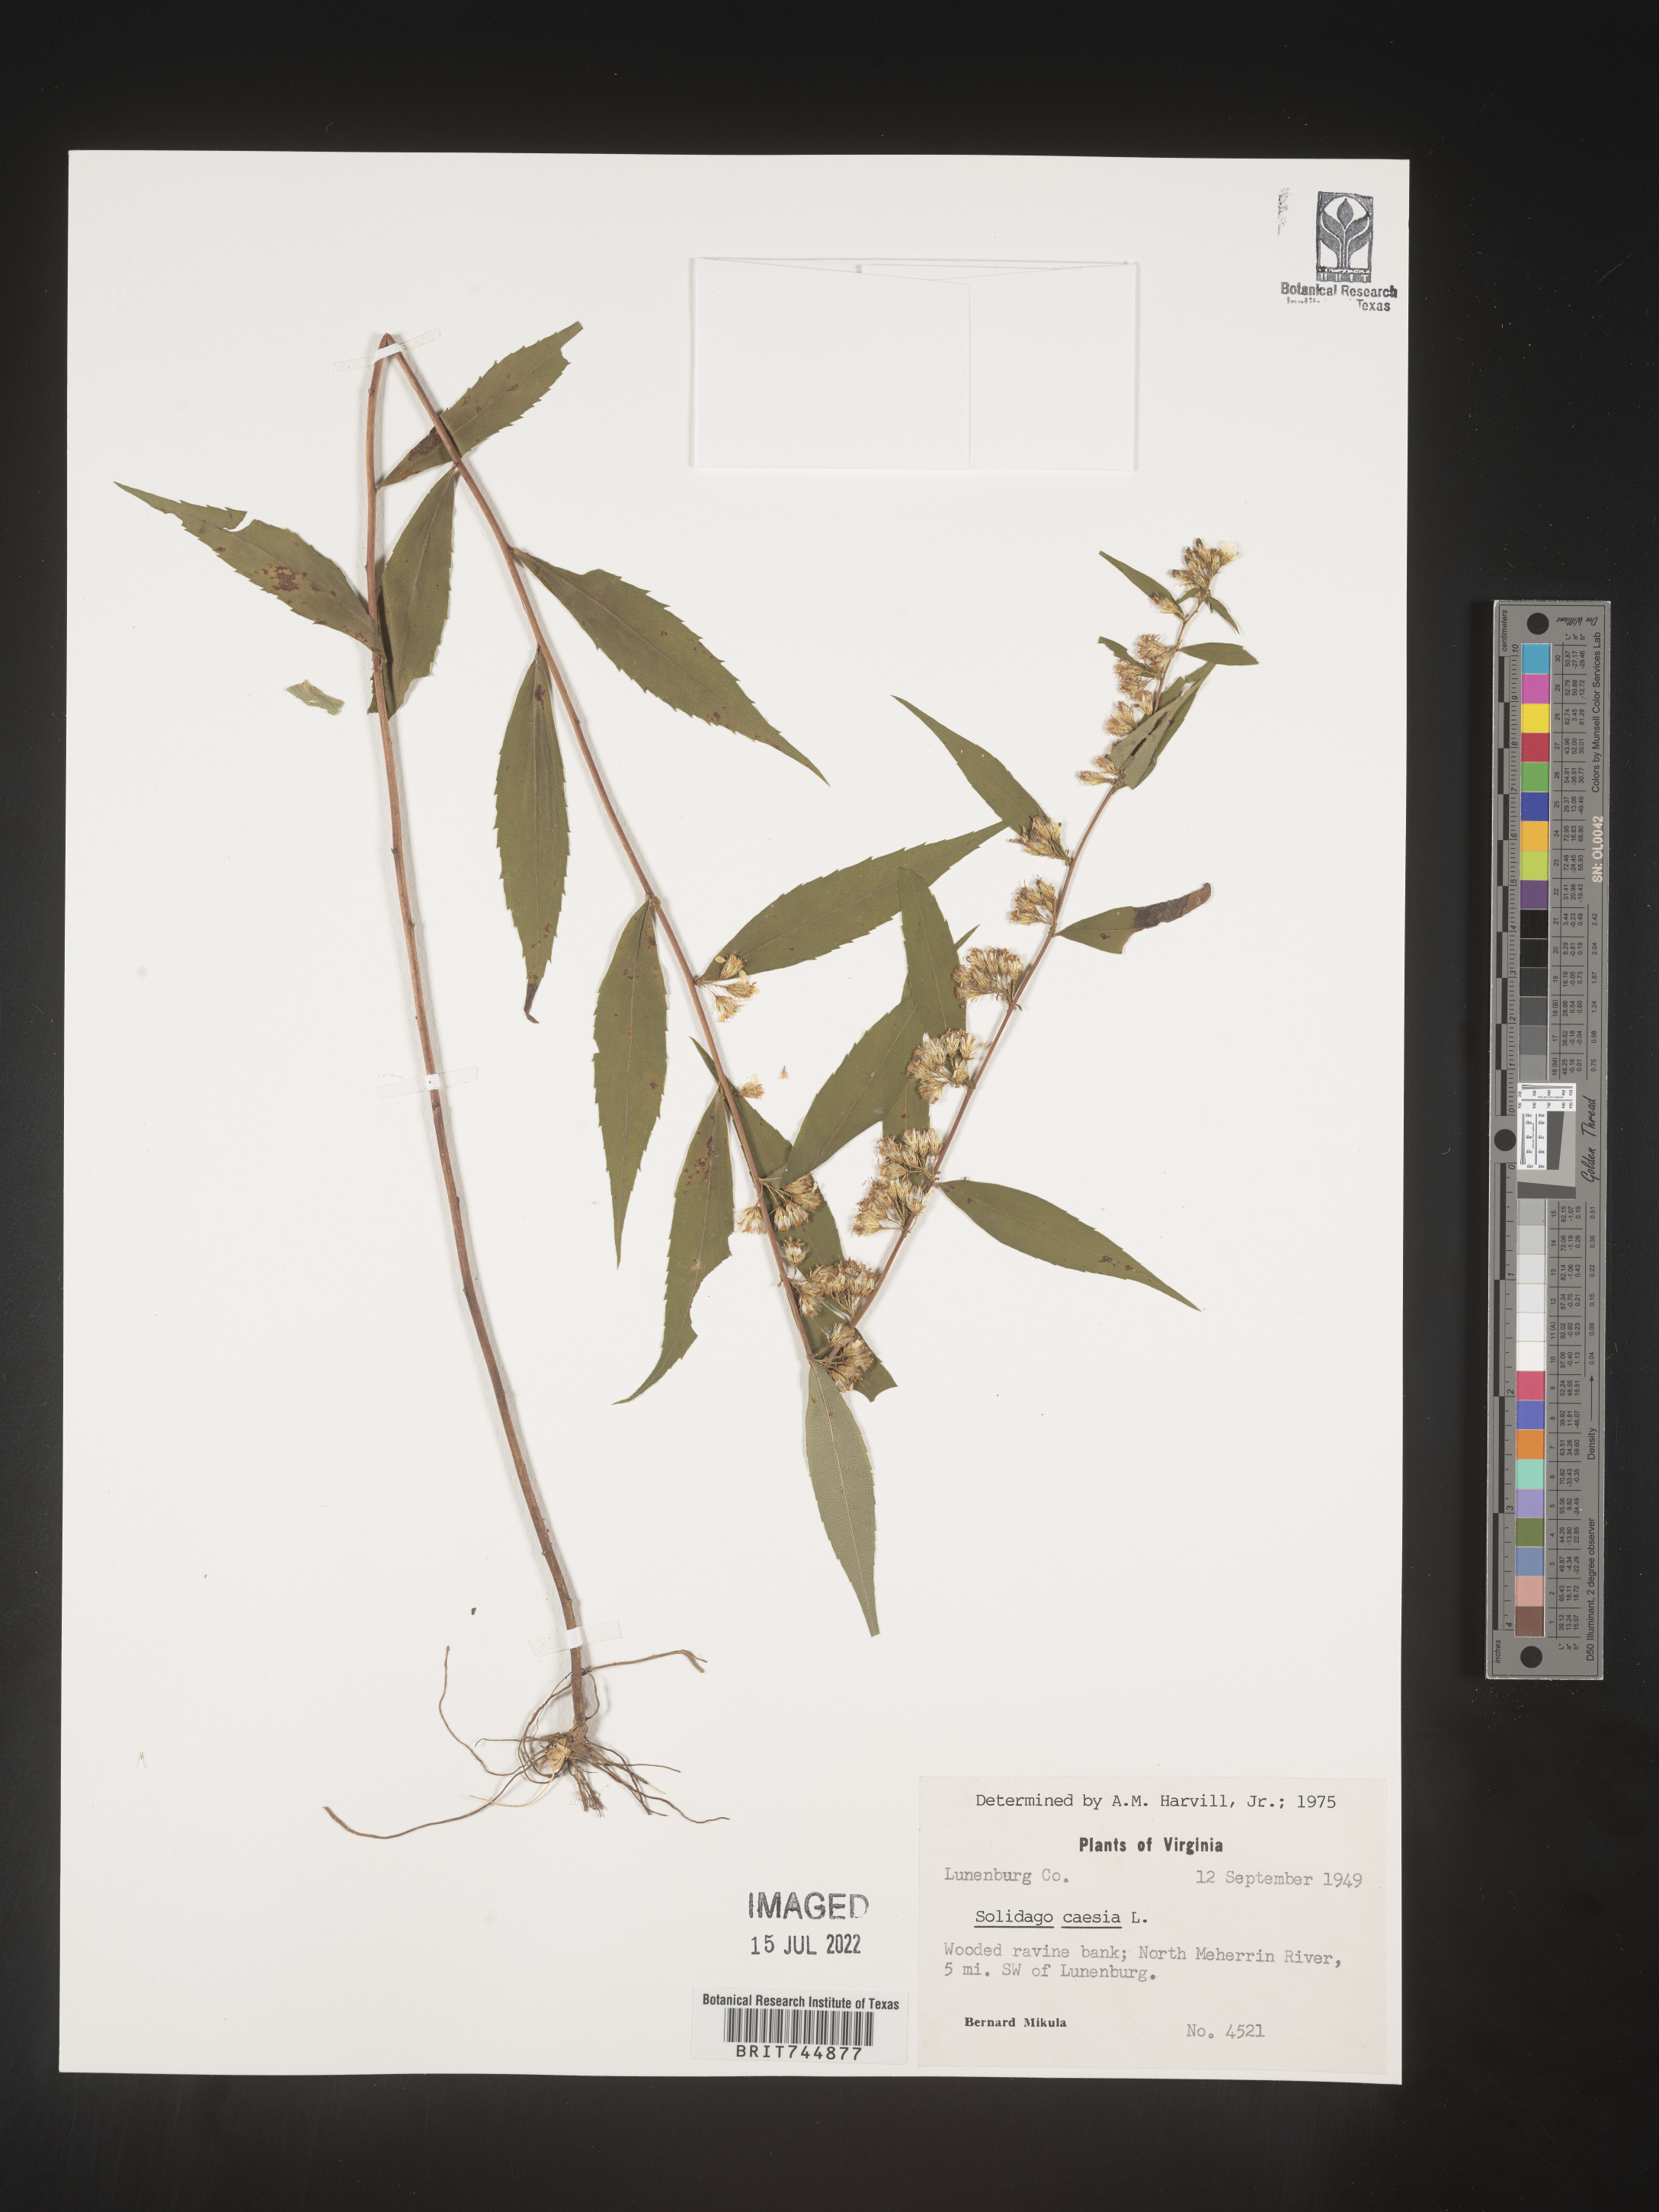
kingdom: Plantae
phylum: Tracheophyta
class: Magnoliopsida
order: Asterales
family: Asteraceae
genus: Solidago
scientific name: Solidago caesia
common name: Woodland goldenrod
